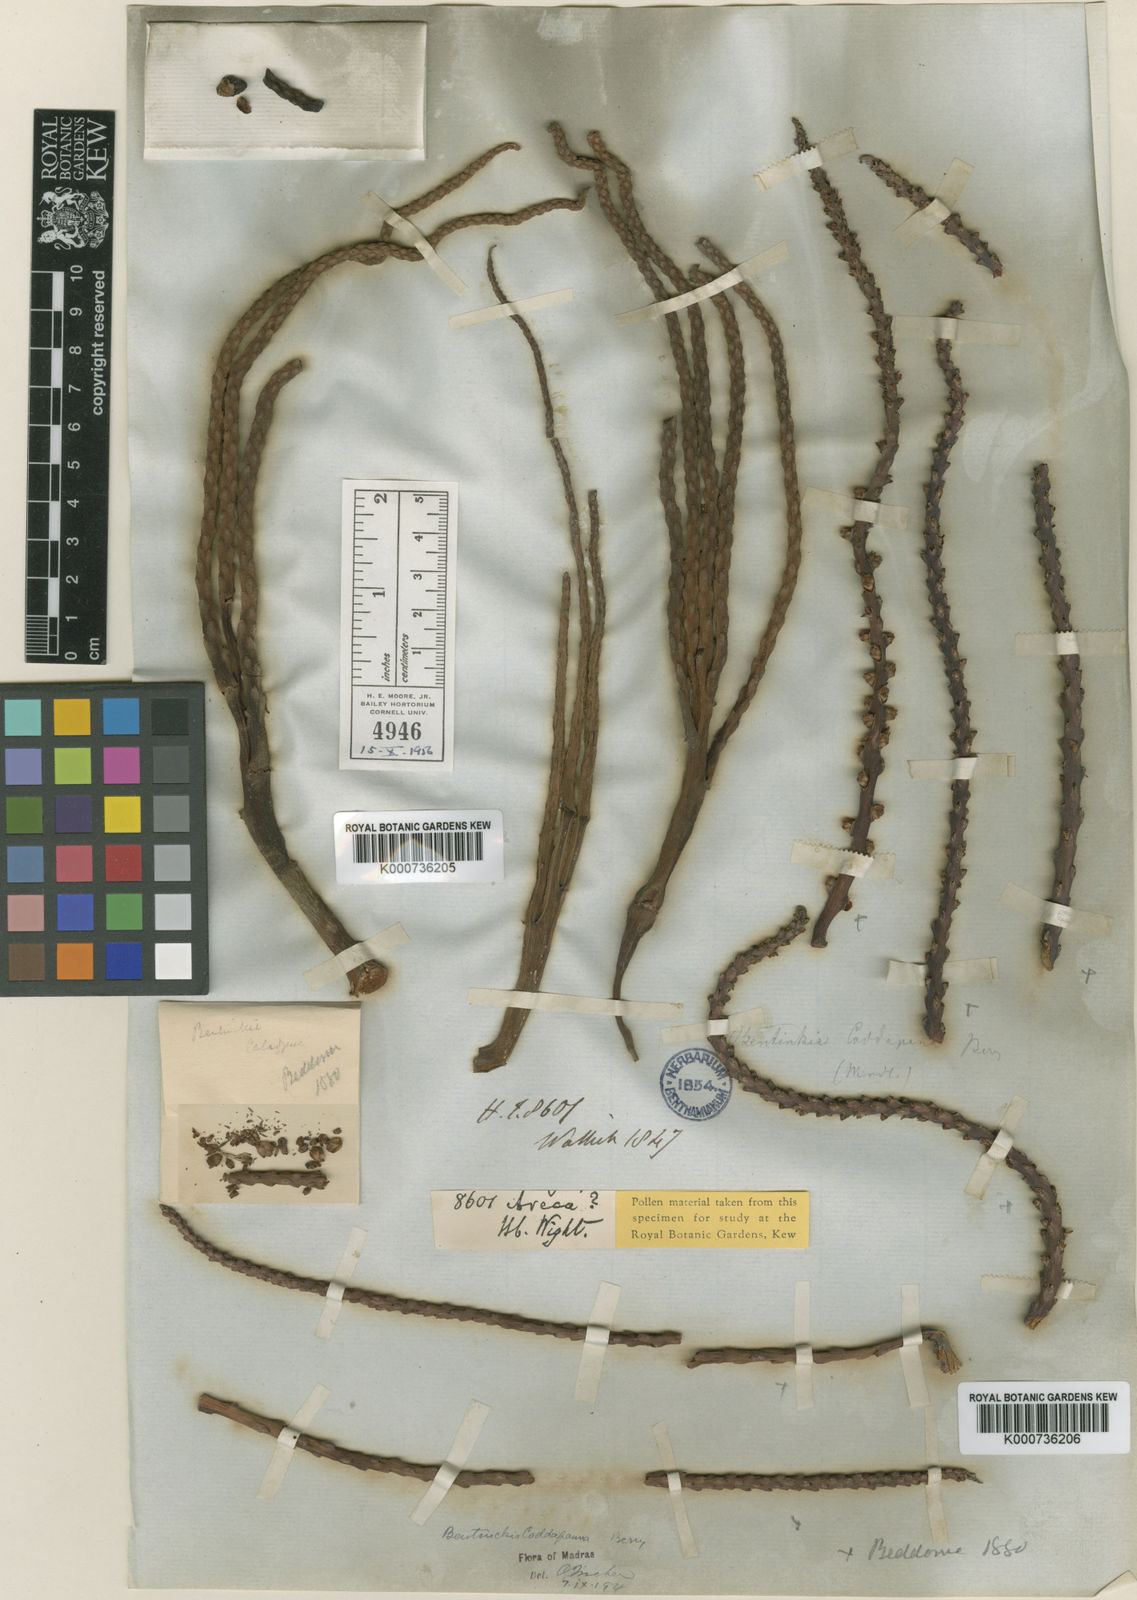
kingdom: Plantae
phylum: Tracheophyta
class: Liliopsida
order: Arecales
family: Arecaceae
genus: Bentinckia
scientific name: Bentinckia condapanna
